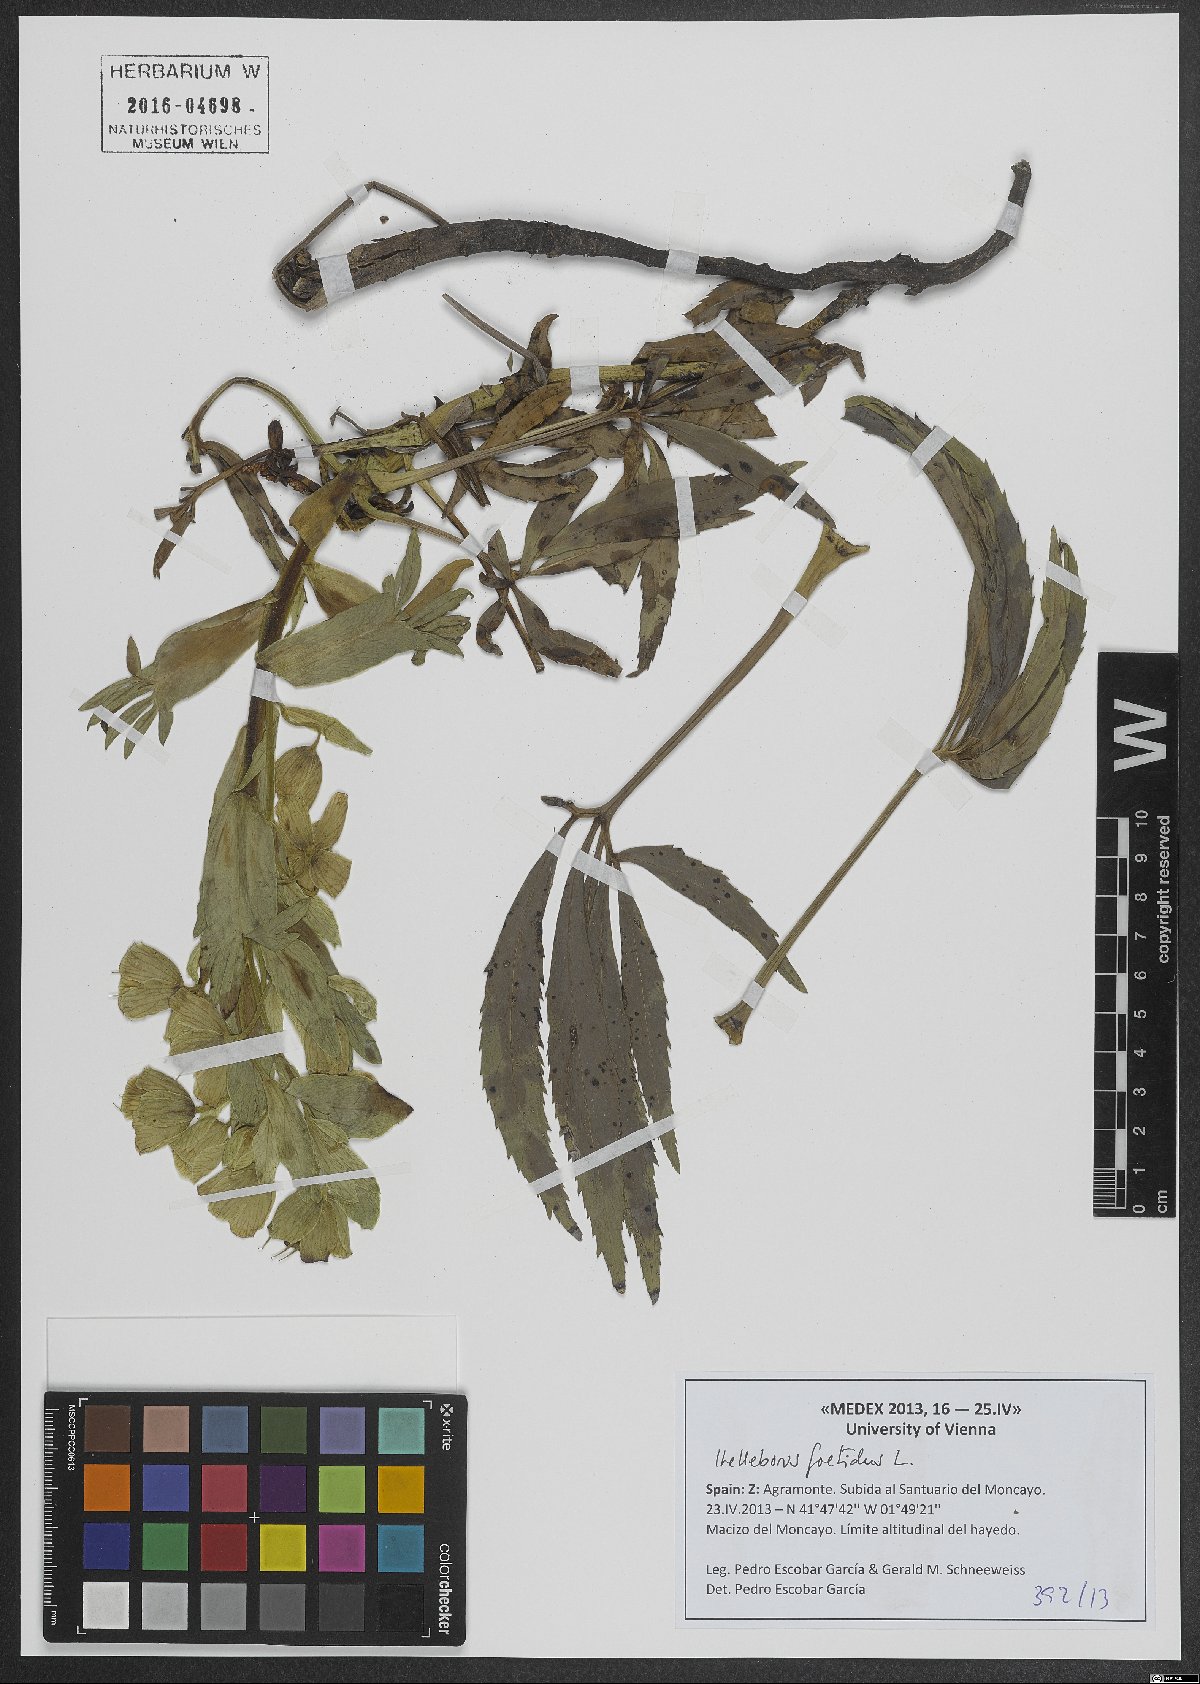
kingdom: Plantae
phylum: Tracheophyta
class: Magnoliopsida
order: Ranunculales
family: Ranunculaceae
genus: Helleborus
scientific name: Helleborus foetidus
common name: Stinking hellebore
